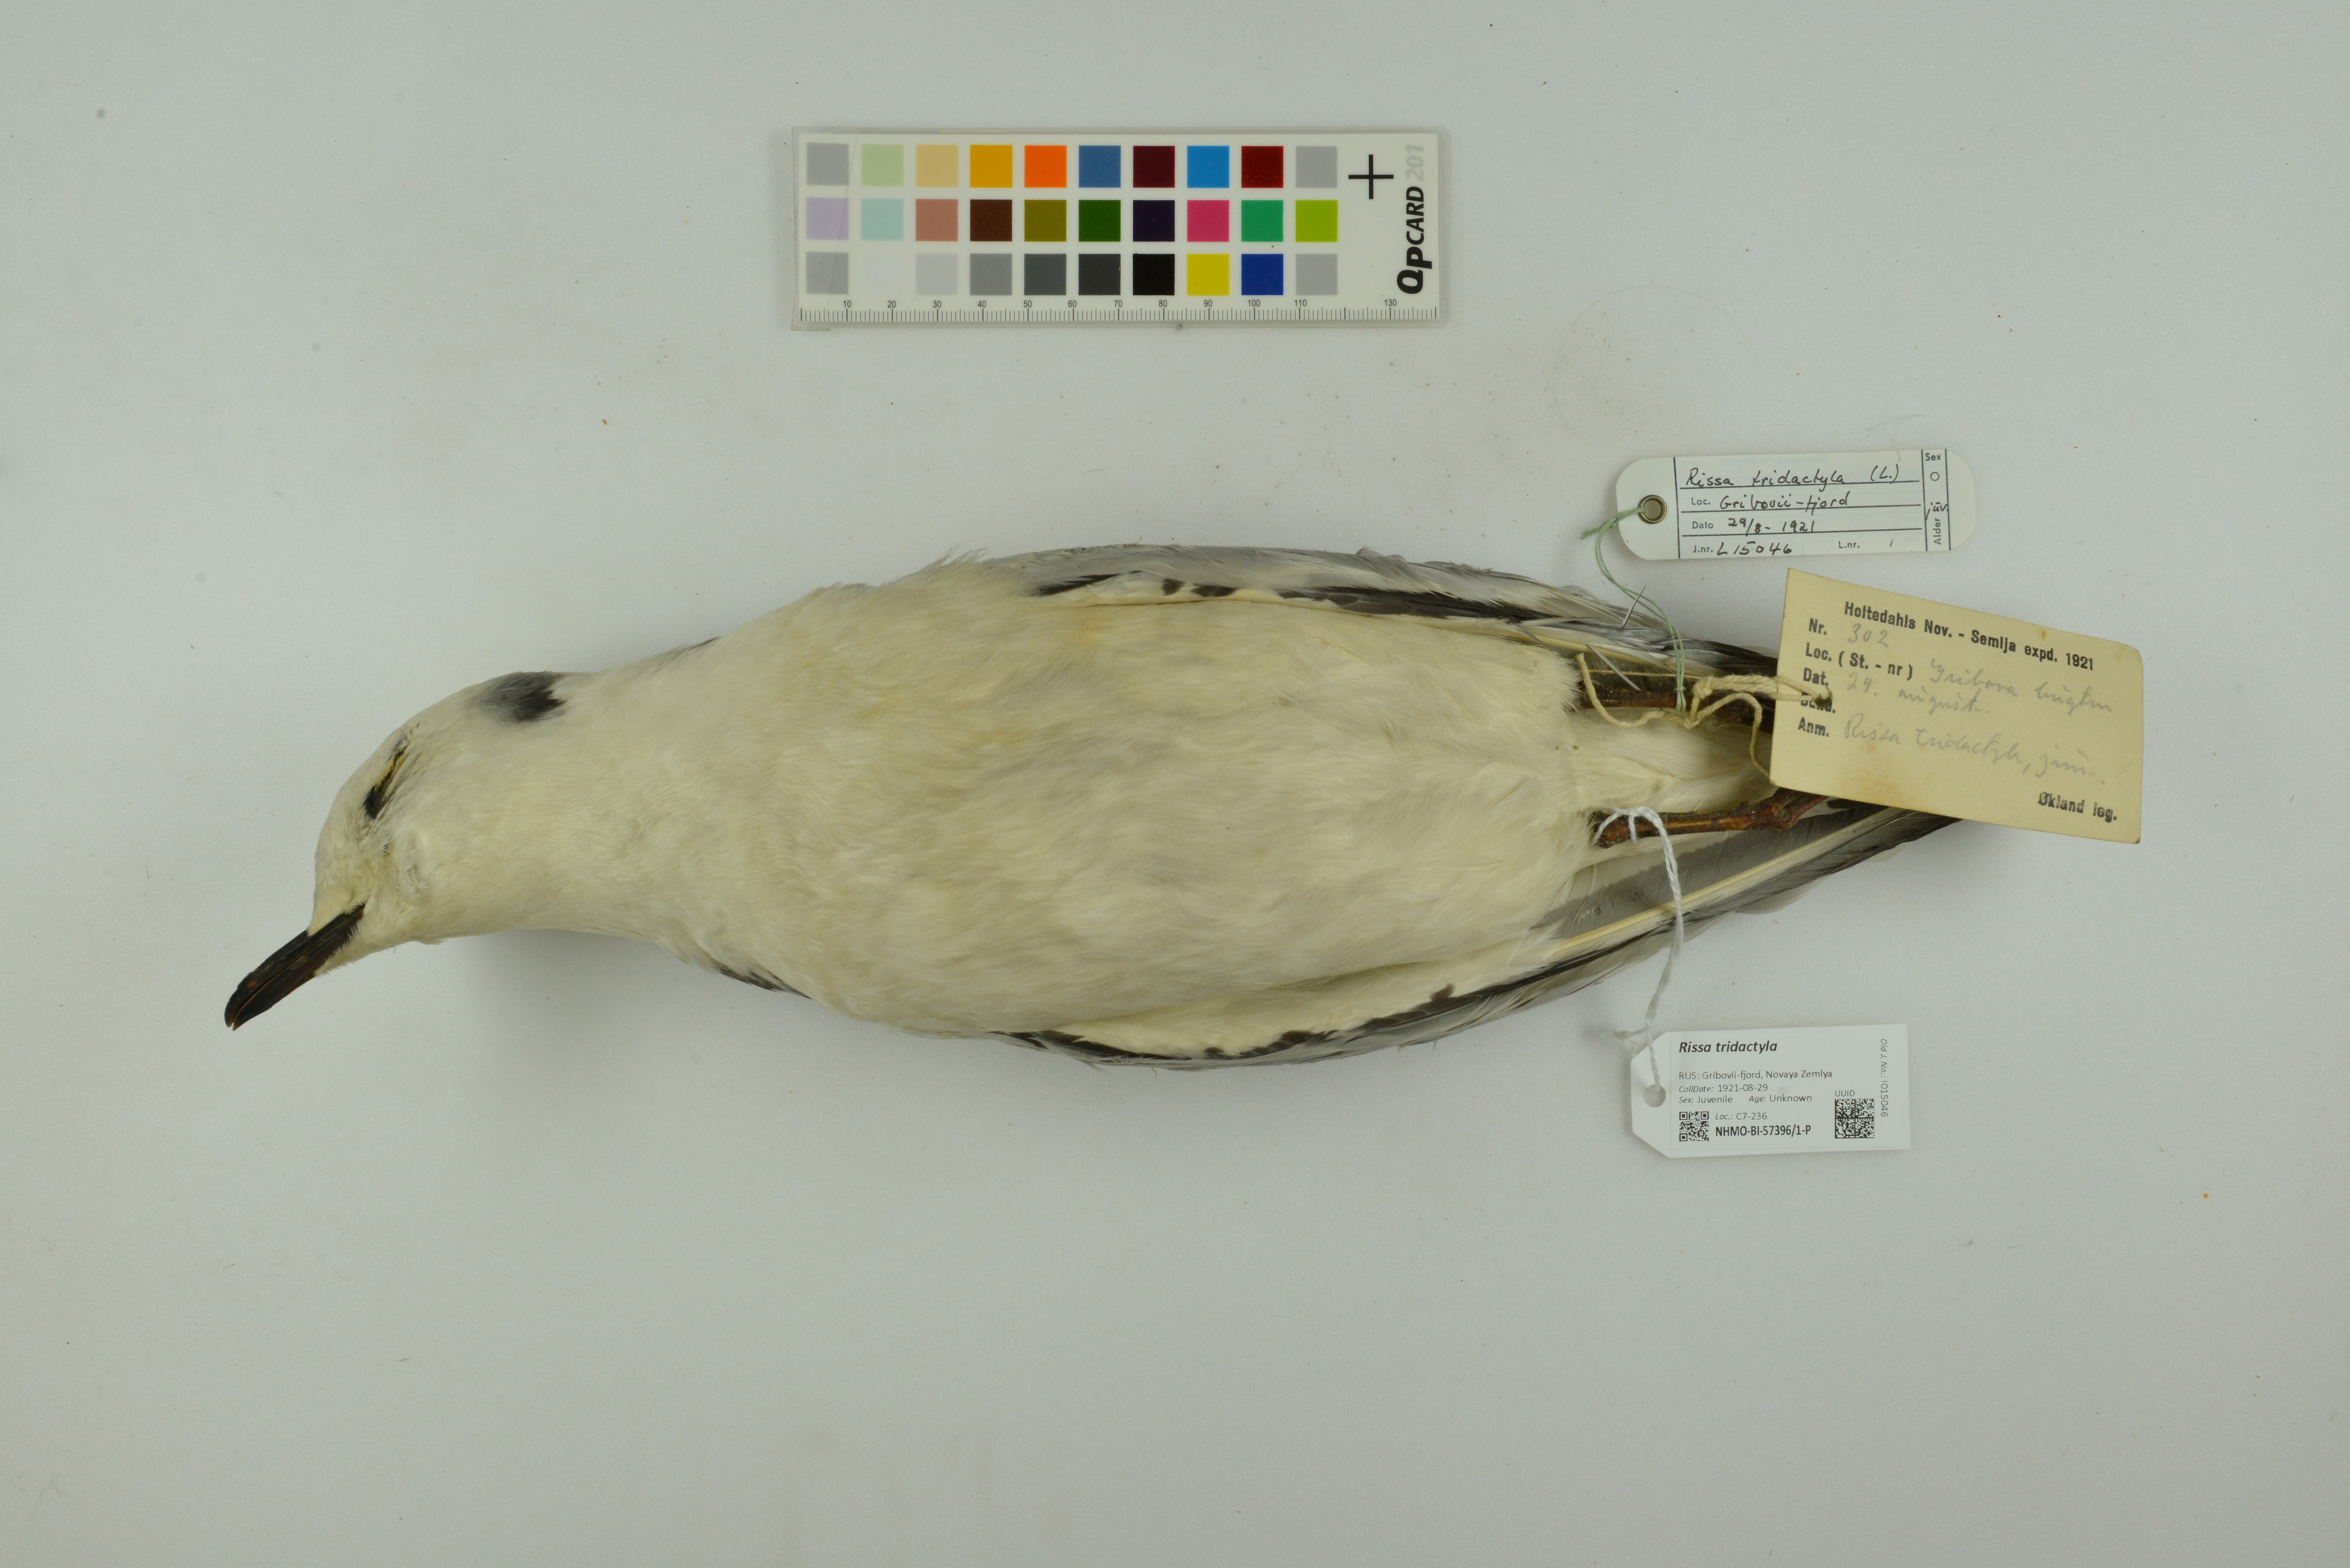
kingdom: Animalia
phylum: Chordata
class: Aves
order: Charadriiformes
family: Laridae
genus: Rissa
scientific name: Rissa tridactyla
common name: Black-legged kittiwake
